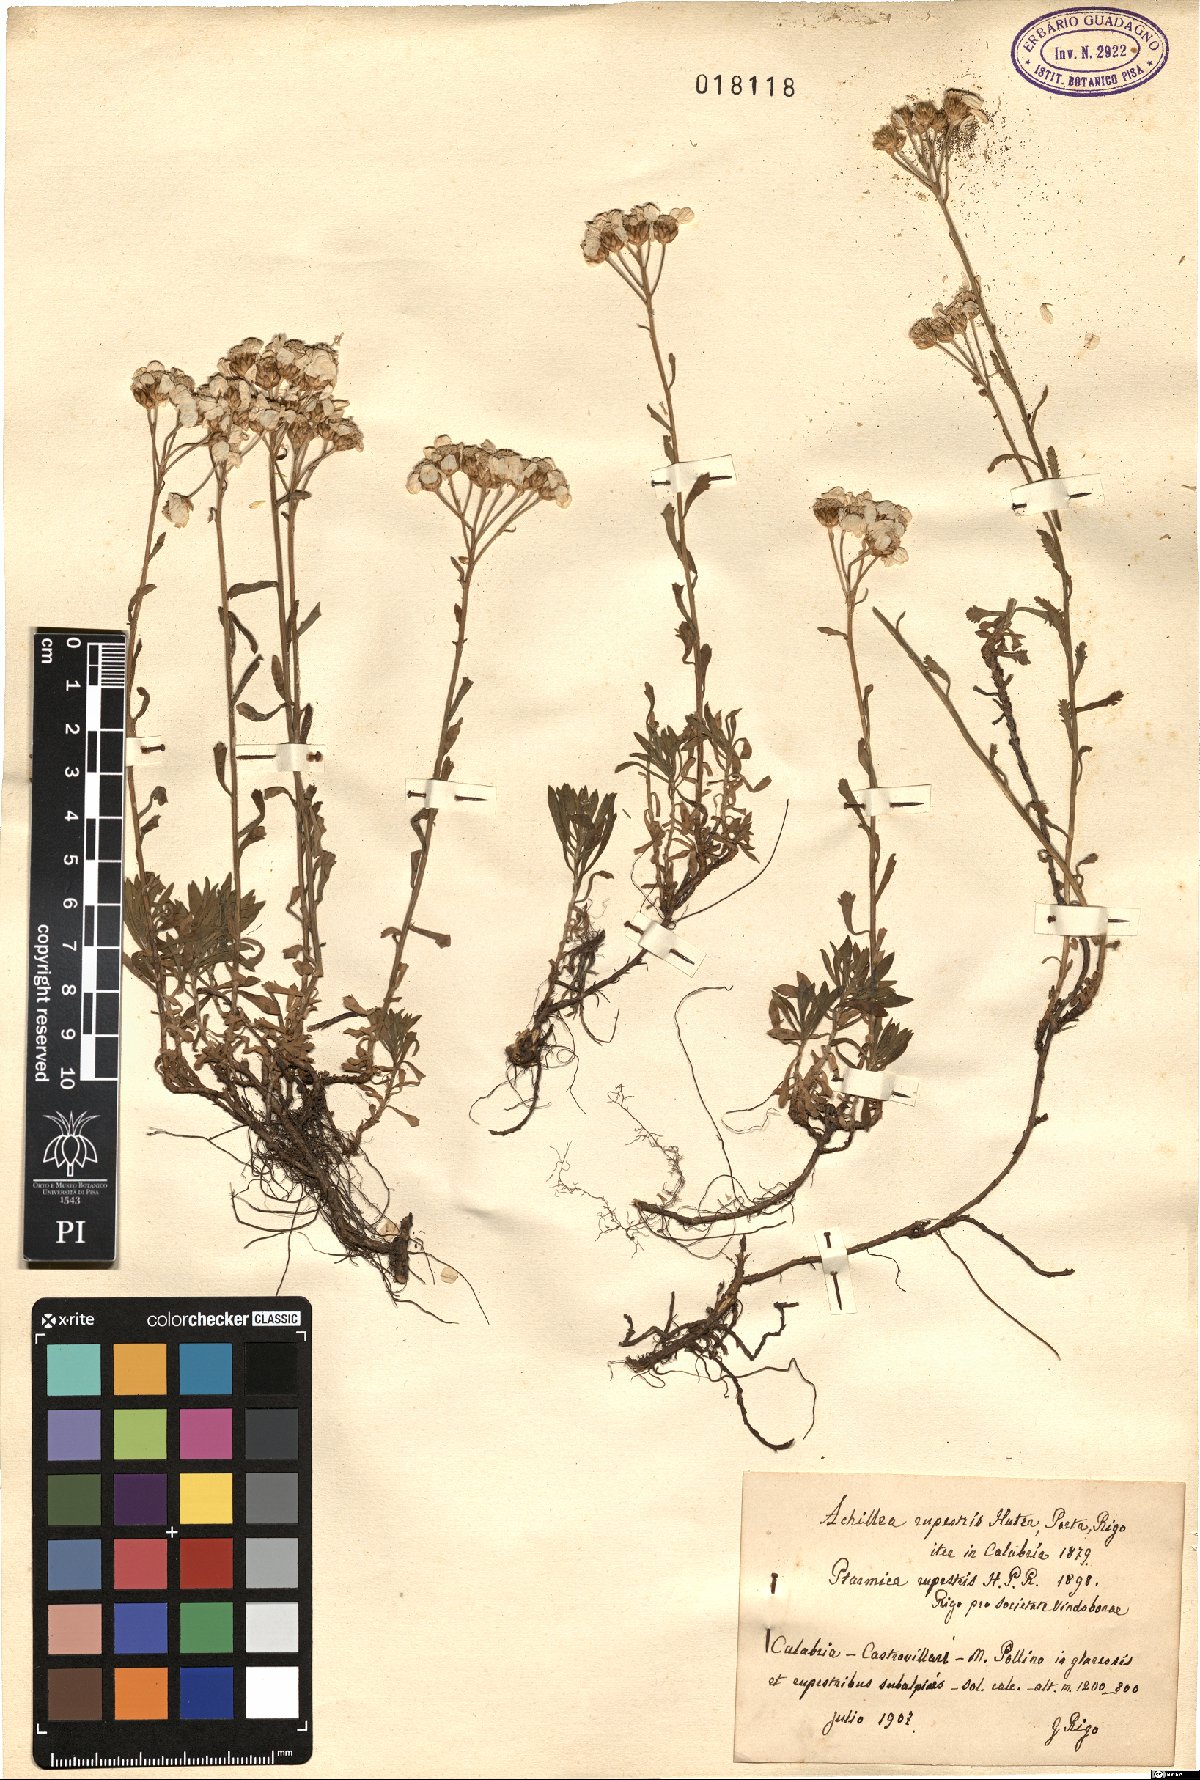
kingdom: Plantae
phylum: Tracheophyta
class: Magnoliopsida
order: Asterales
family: Asteraceae
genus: Achillea
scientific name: Achillea rupestris
